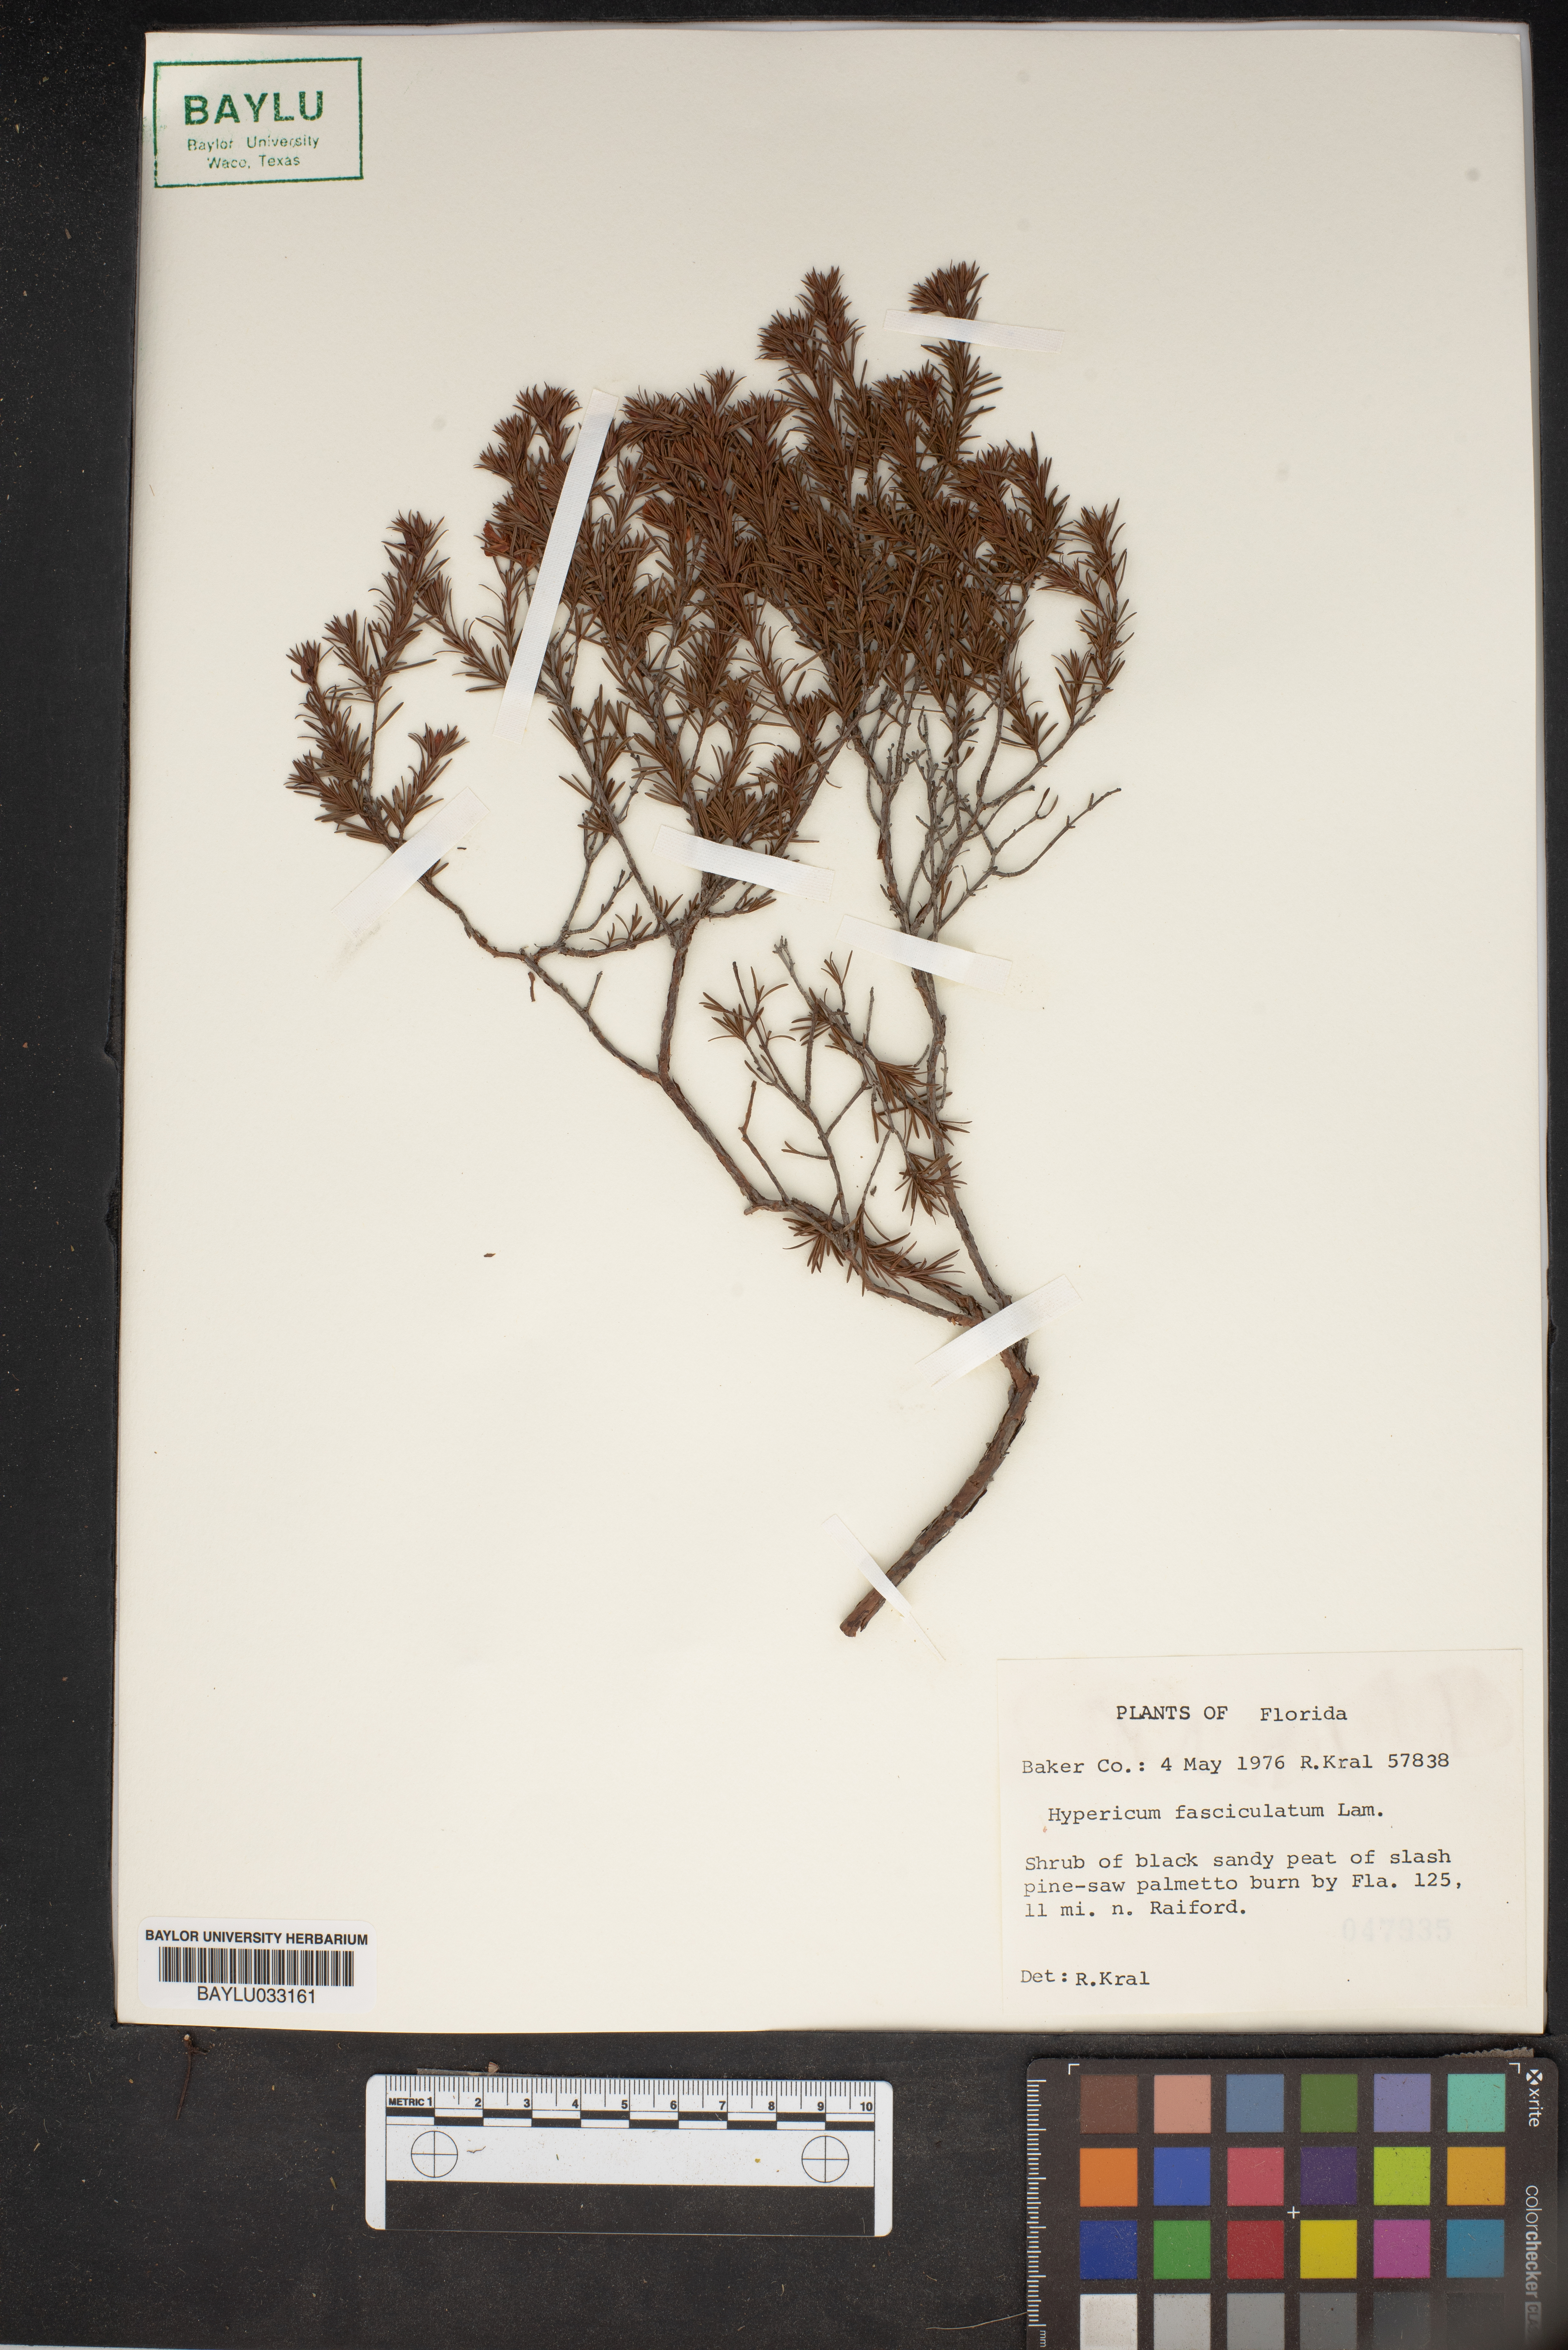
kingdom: Plantae
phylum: Tracheophyta
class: Magnoliopsida
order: Malpighiales
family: Hypericaceae
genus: Hypericum
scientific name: Hypericum fasciculatum
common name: Peelbark st. john's wort
